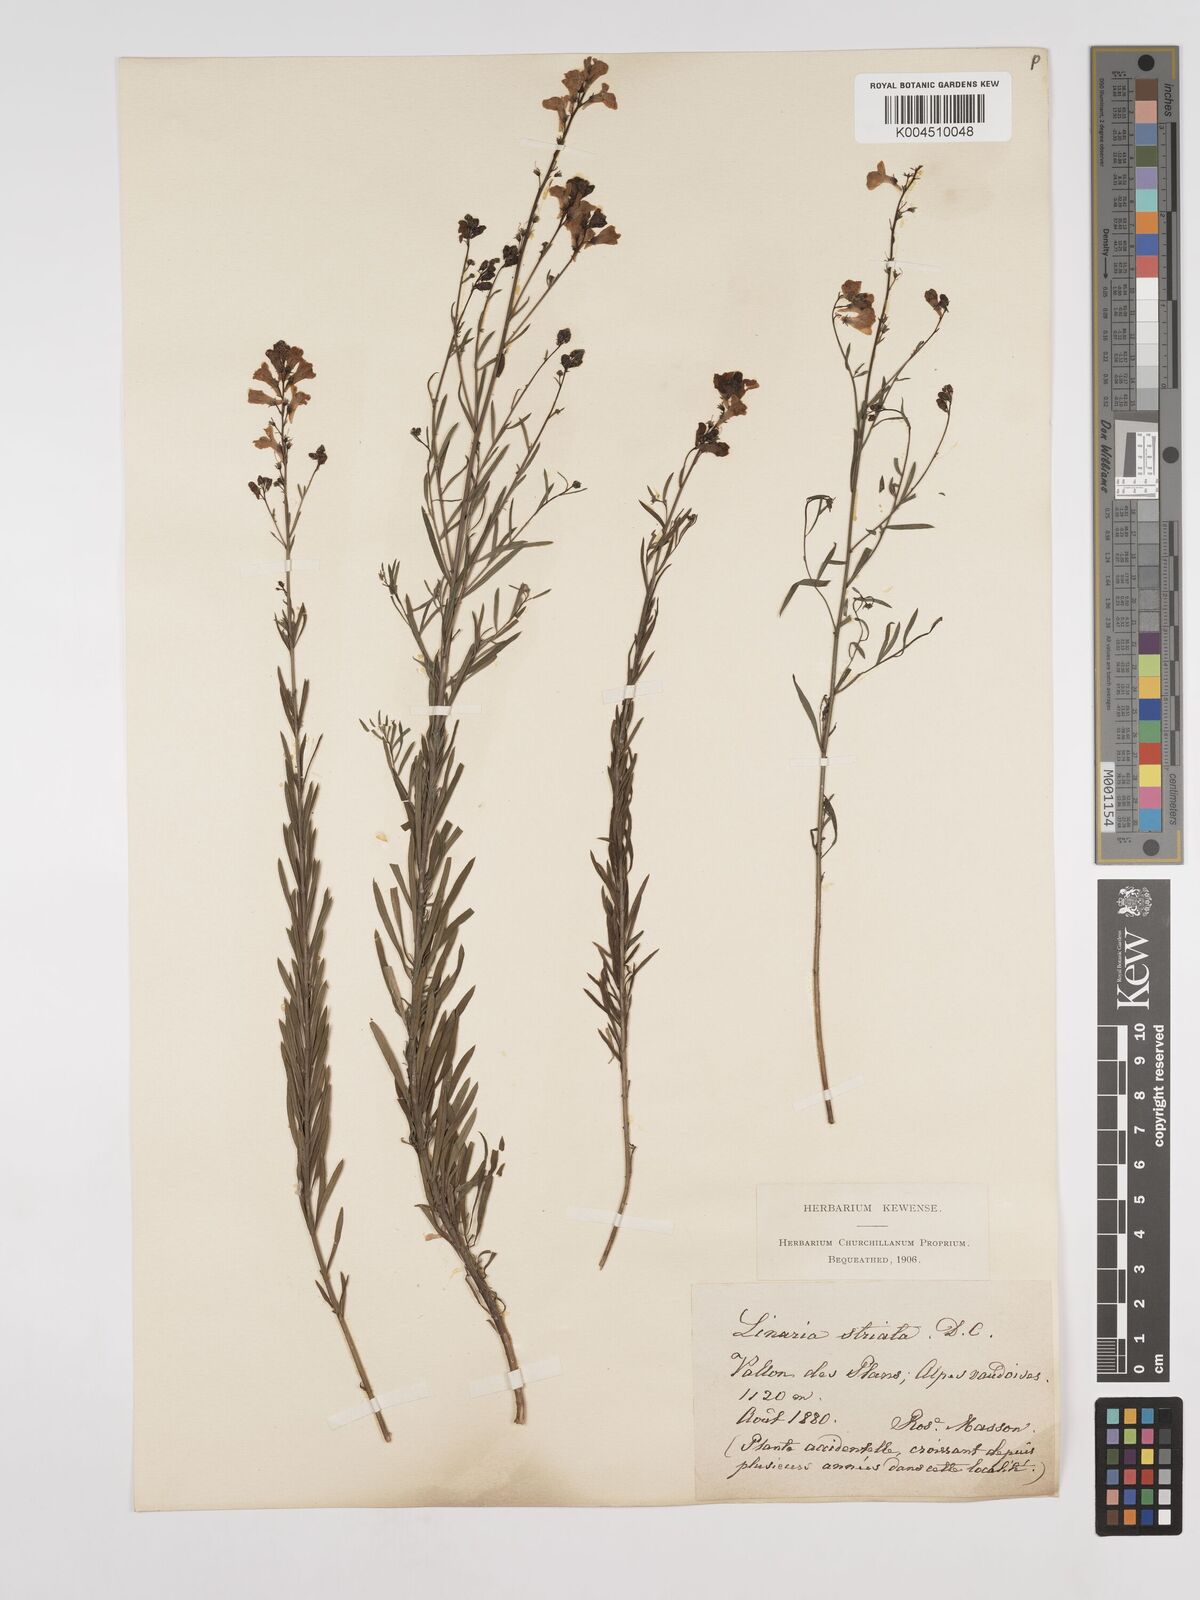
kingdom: Plantae
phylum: Tracheophyta
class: Magnoliopsida
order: Lamiales
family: Plantaginaceae
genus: Linaria
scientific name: Linaria repens
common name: Pale toadflax
